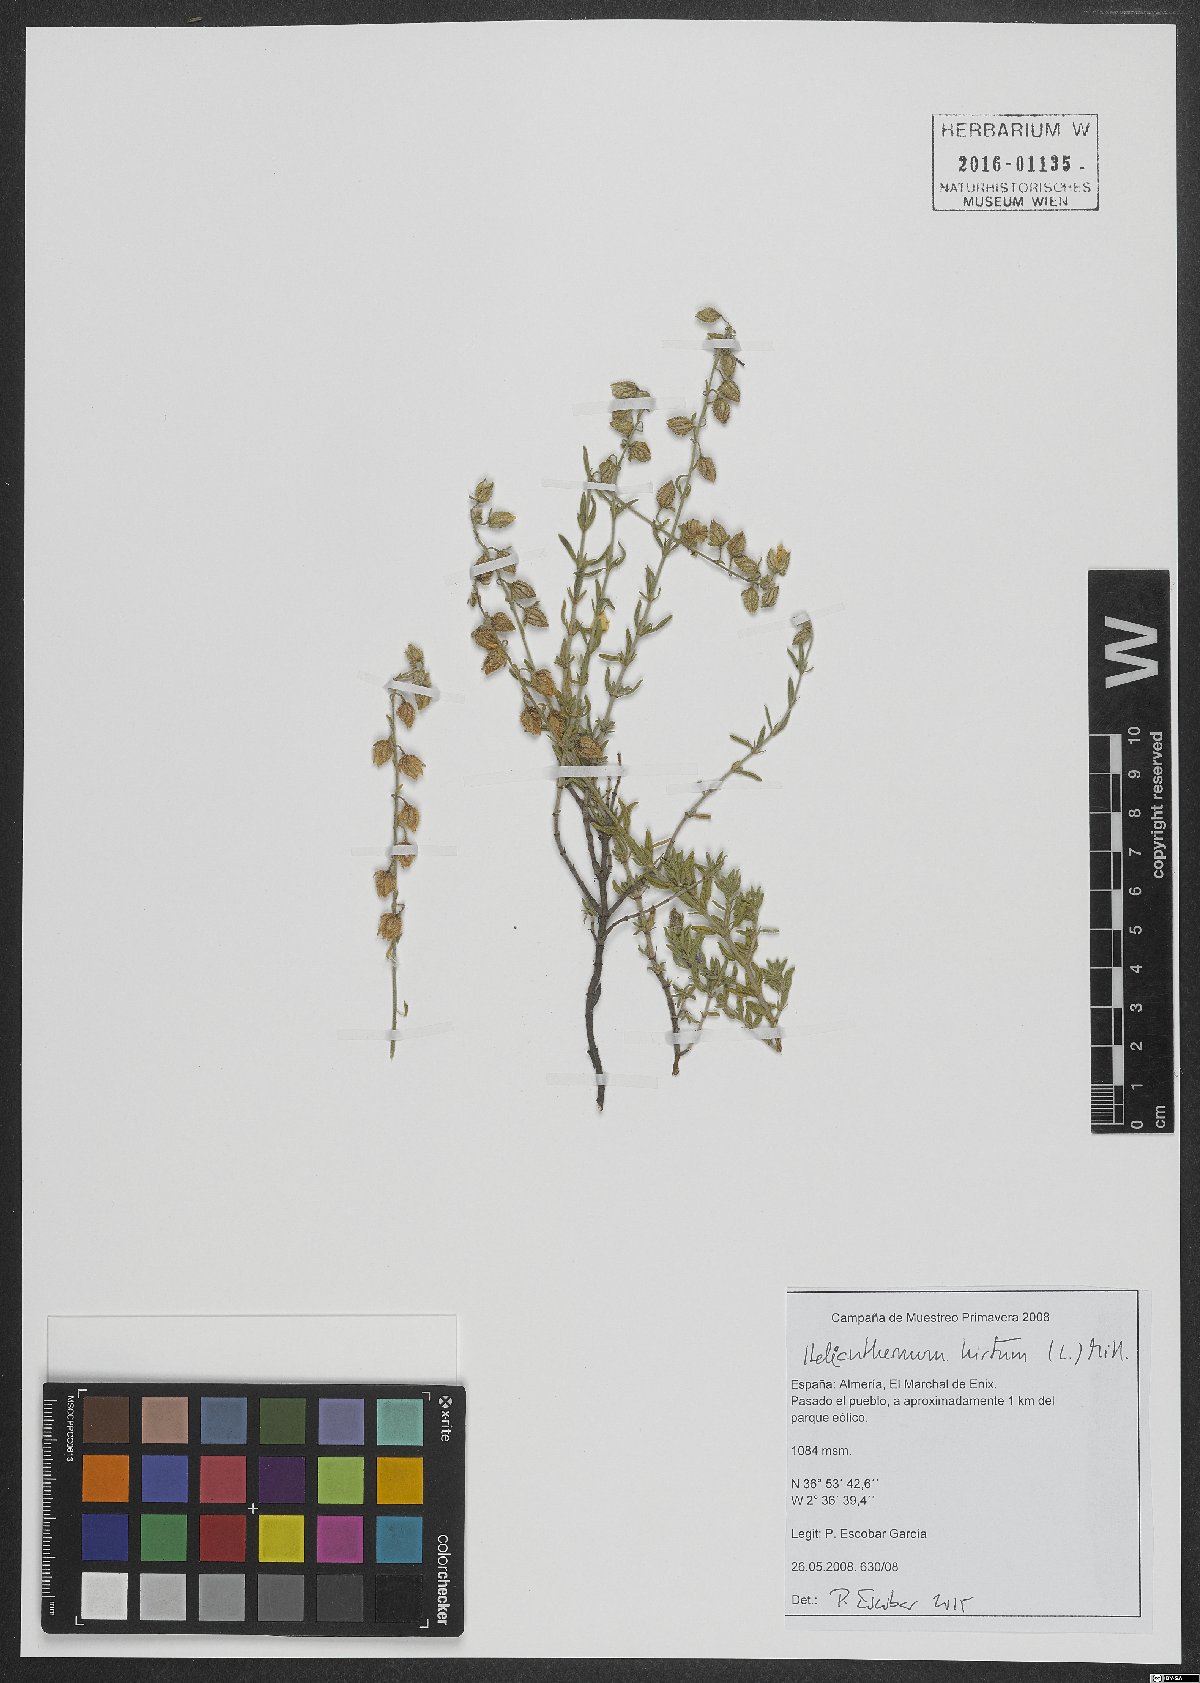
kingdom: Plantae
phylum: Tracheophyta
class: Magnoliopsida
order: Malvales
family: Cistaceae
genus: Helianthemum
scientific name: Helianthemum hirtum
